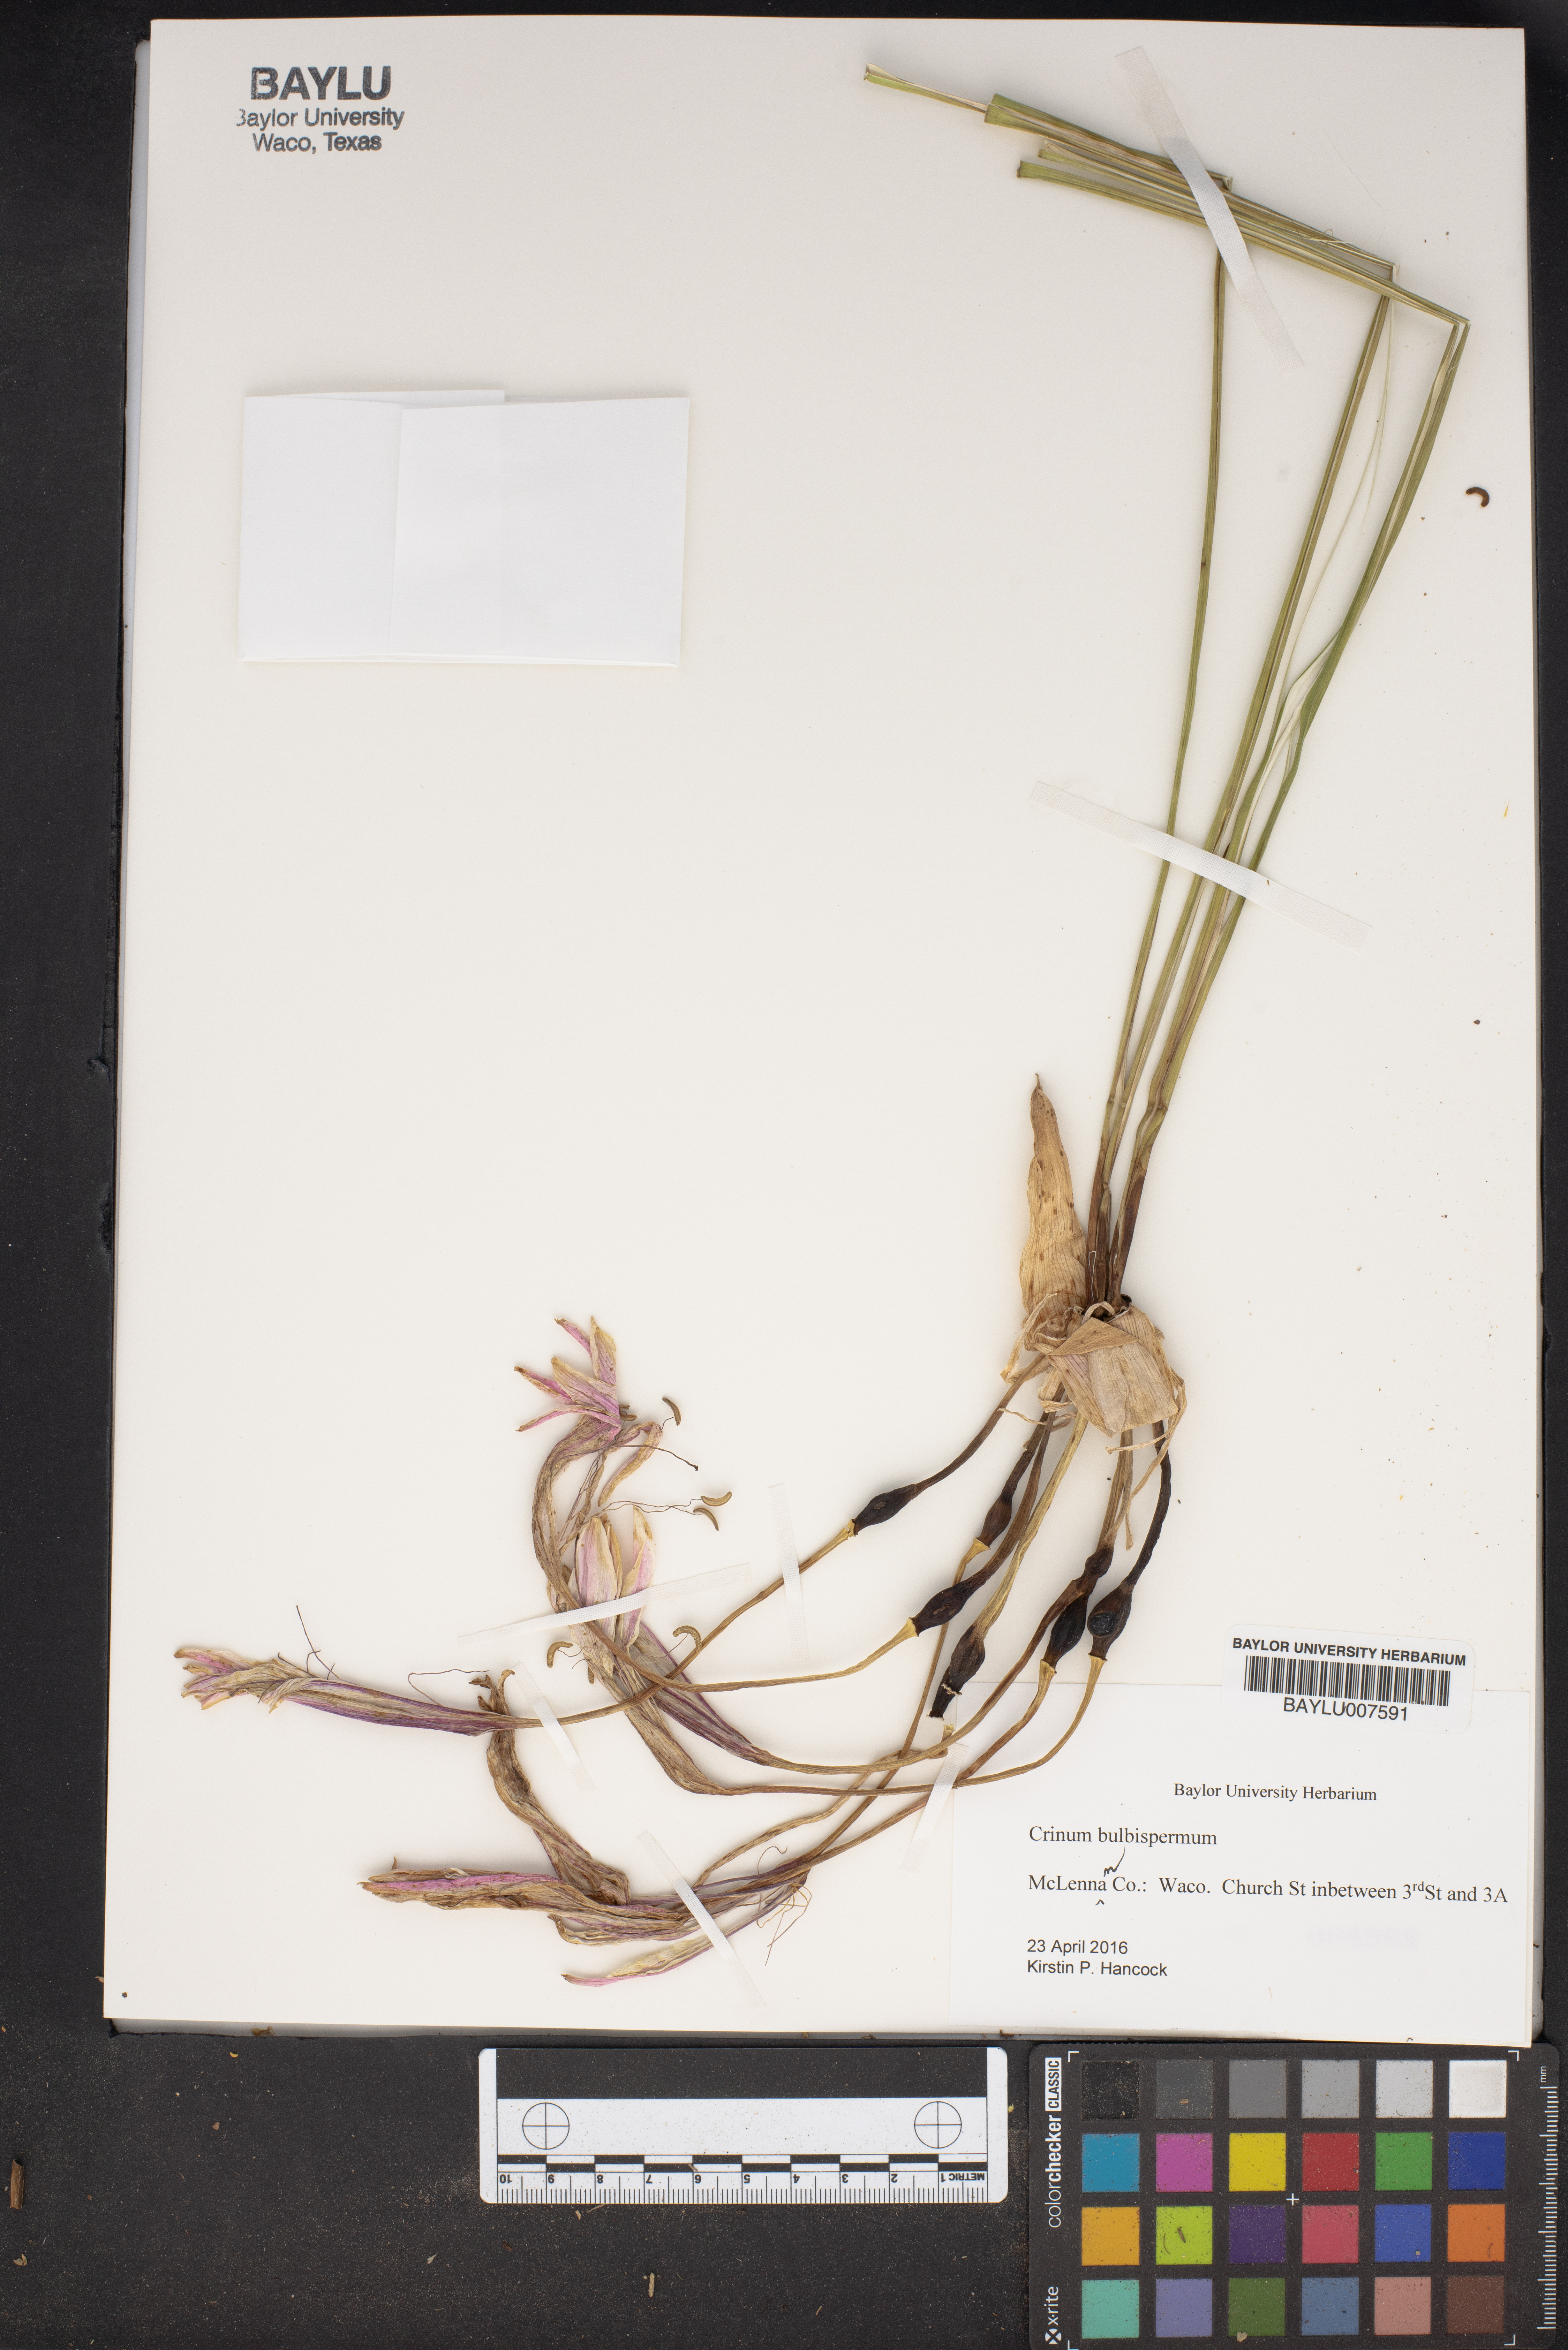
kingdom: Plantae
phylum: Tracheophyta
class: Liliopsida
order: Asparagales
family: Amaryllidaceae
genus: Crinum
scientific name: Crinum bulbispermum
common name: Hardy swamplily
